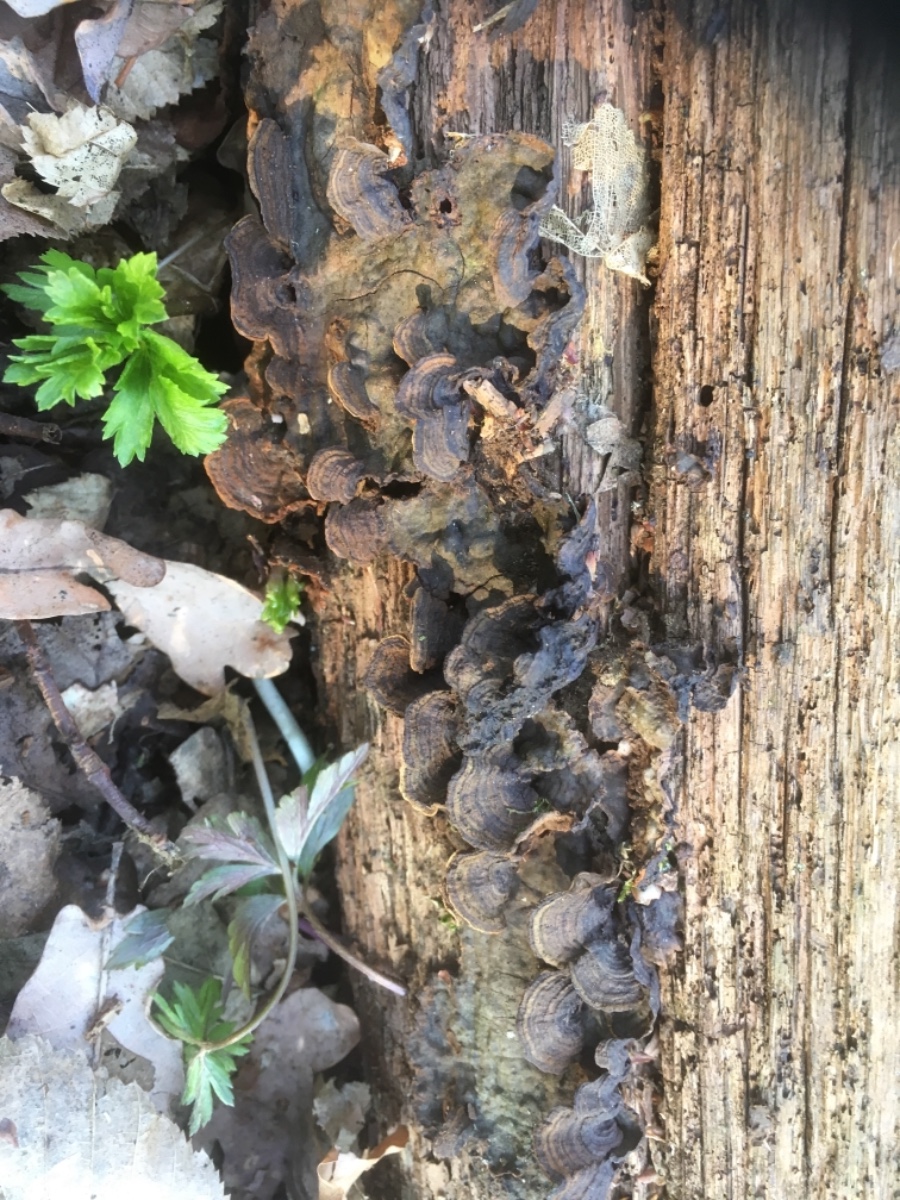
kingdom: Fungi
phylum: Basidiomycota
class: Agaricomycetes
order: Hymenochaetales
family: Hymenochaetaceae
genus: Hymenochaete
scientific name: Hymenochaete rubiginosa
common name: stiv ruslædersvamp
